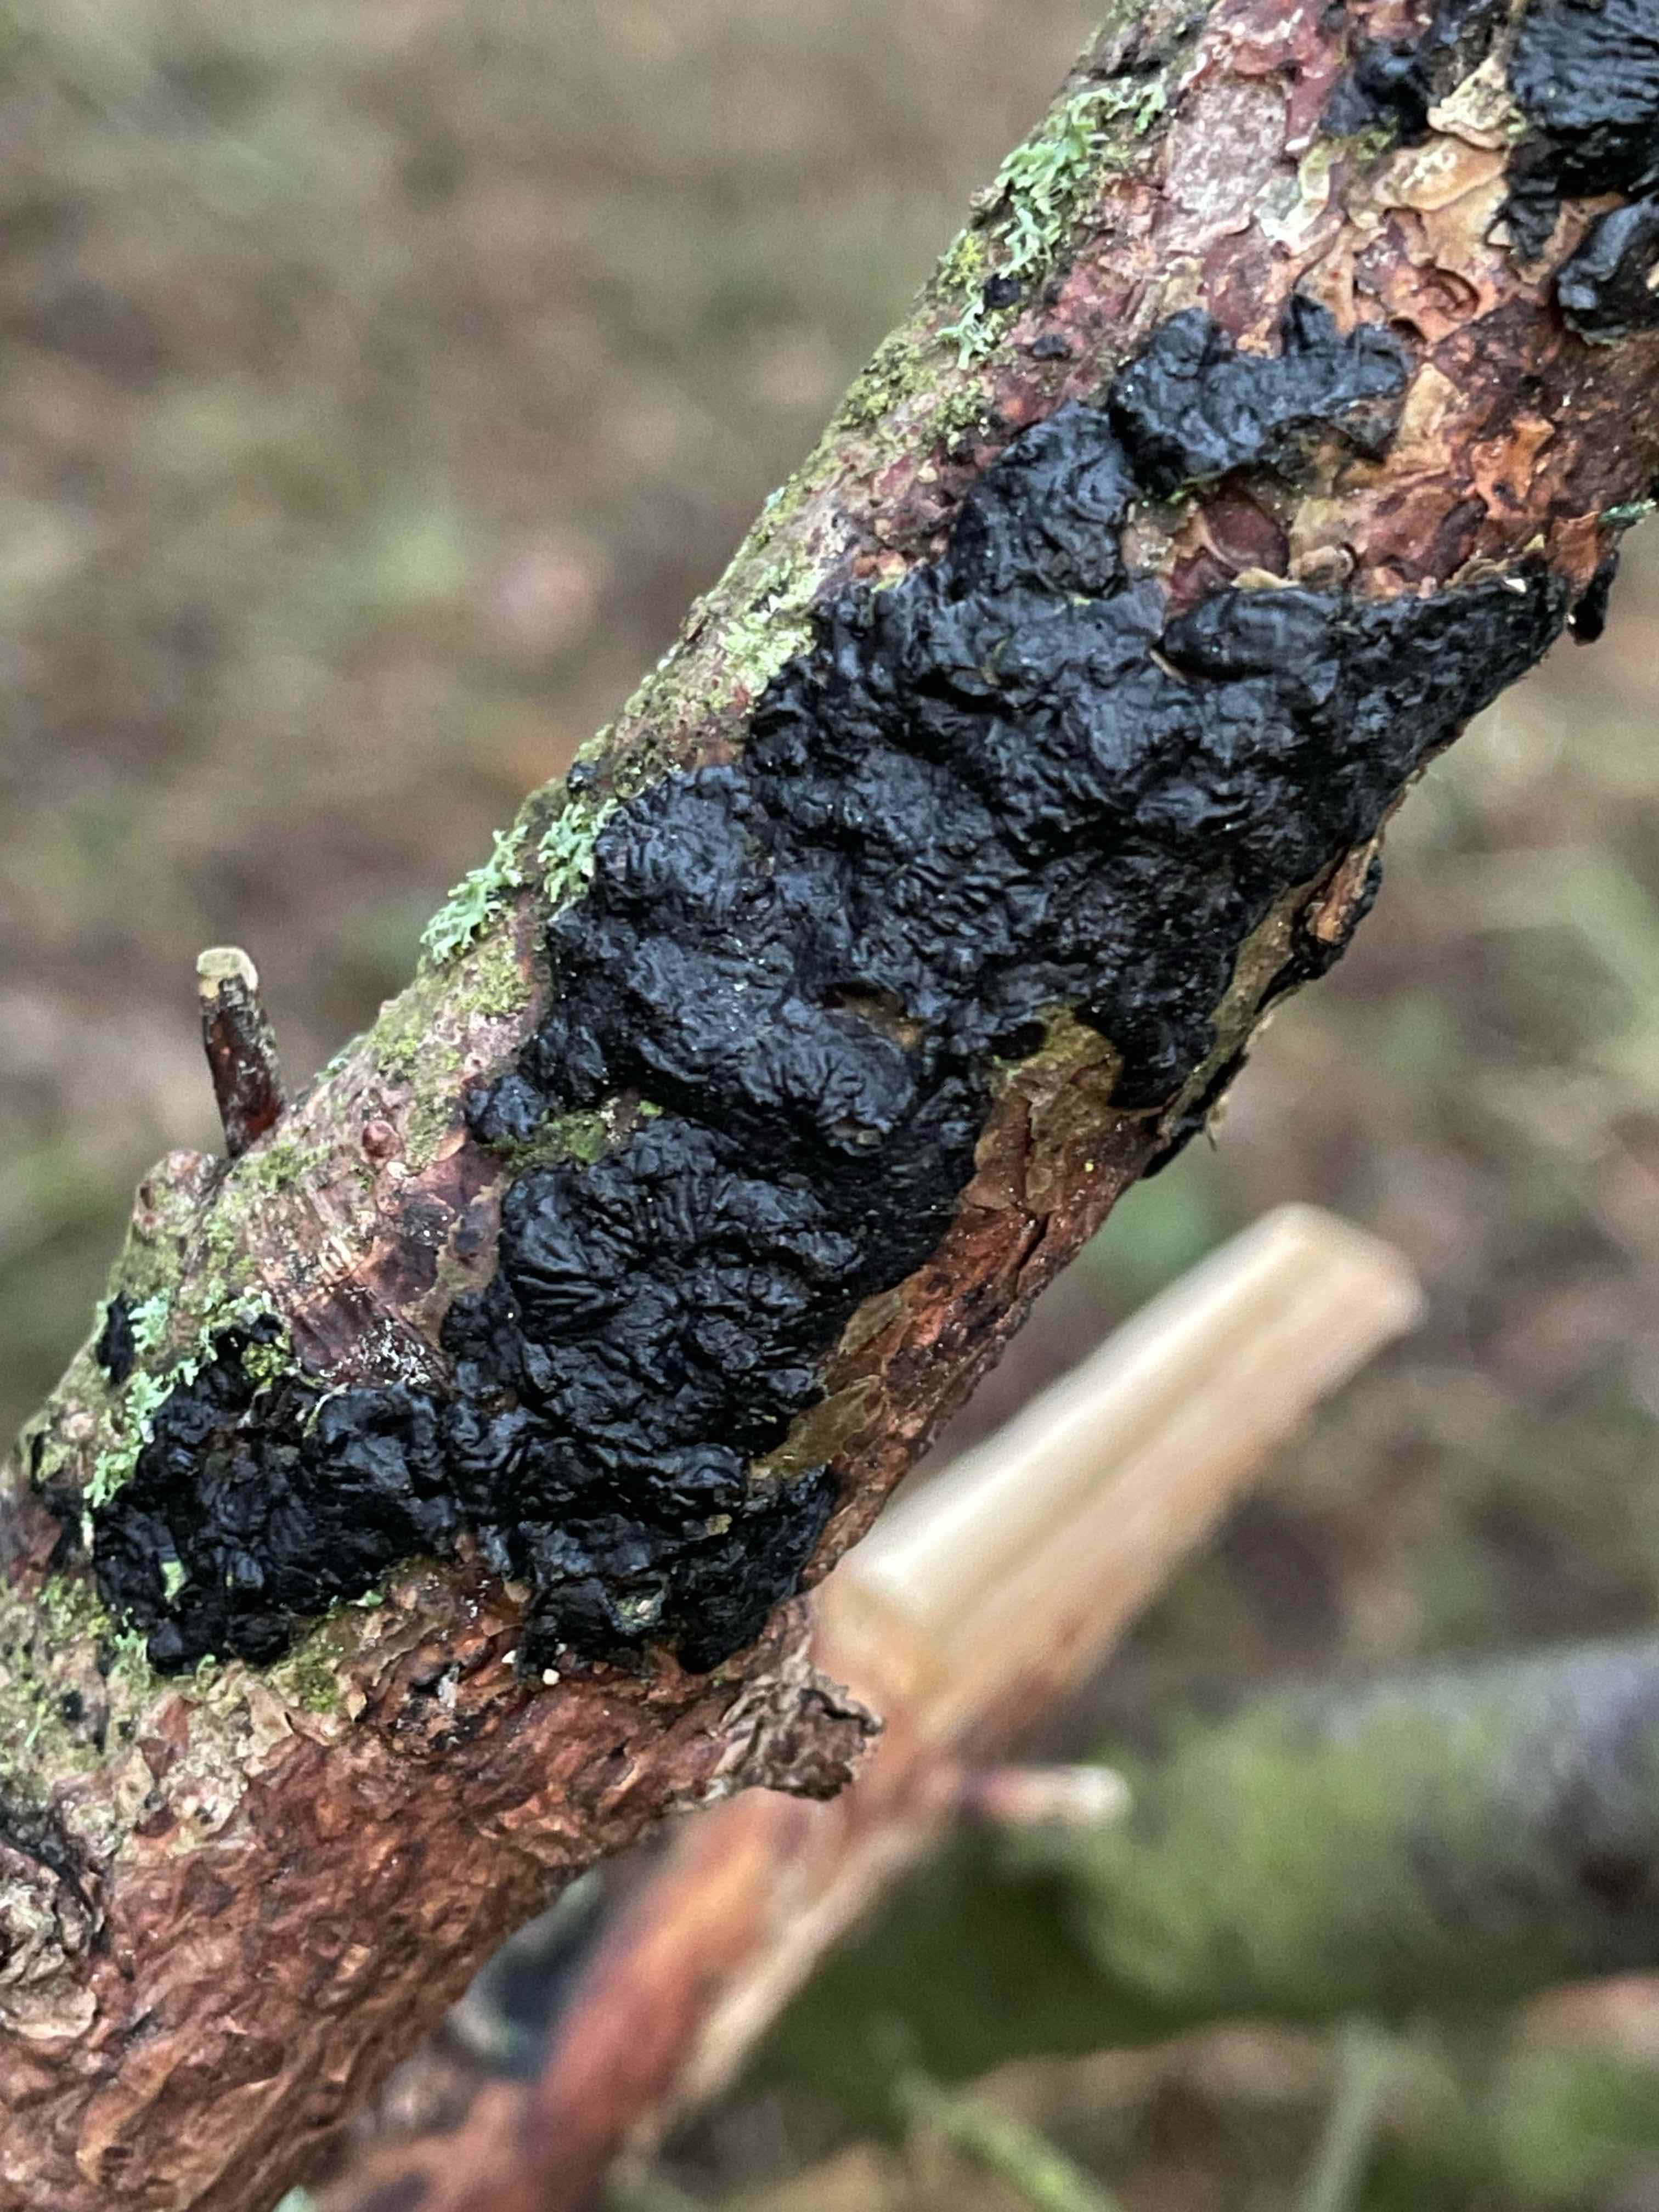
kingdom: Fungi
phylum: Basidiomycota
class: Agaricomycetes
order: Auriculariales
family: Auriculariaceae
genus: Exidia
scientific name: Exidia pithya
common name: gran-bævretop
